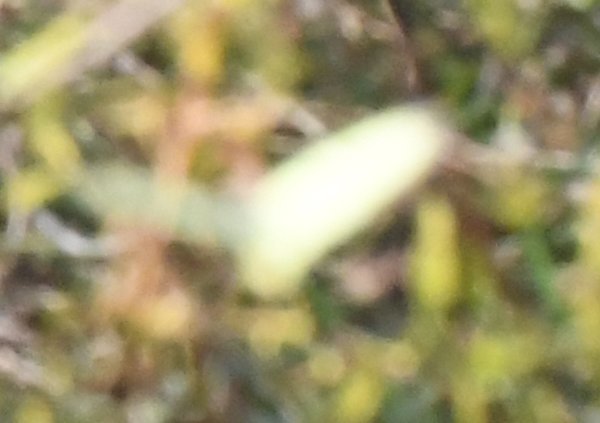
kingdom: Animalia
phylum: Arthropoda
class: Insecta
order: Lepidoptera
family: Pieridae
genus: Colias
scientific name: Colias philodice
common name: Clouded Sulphur
